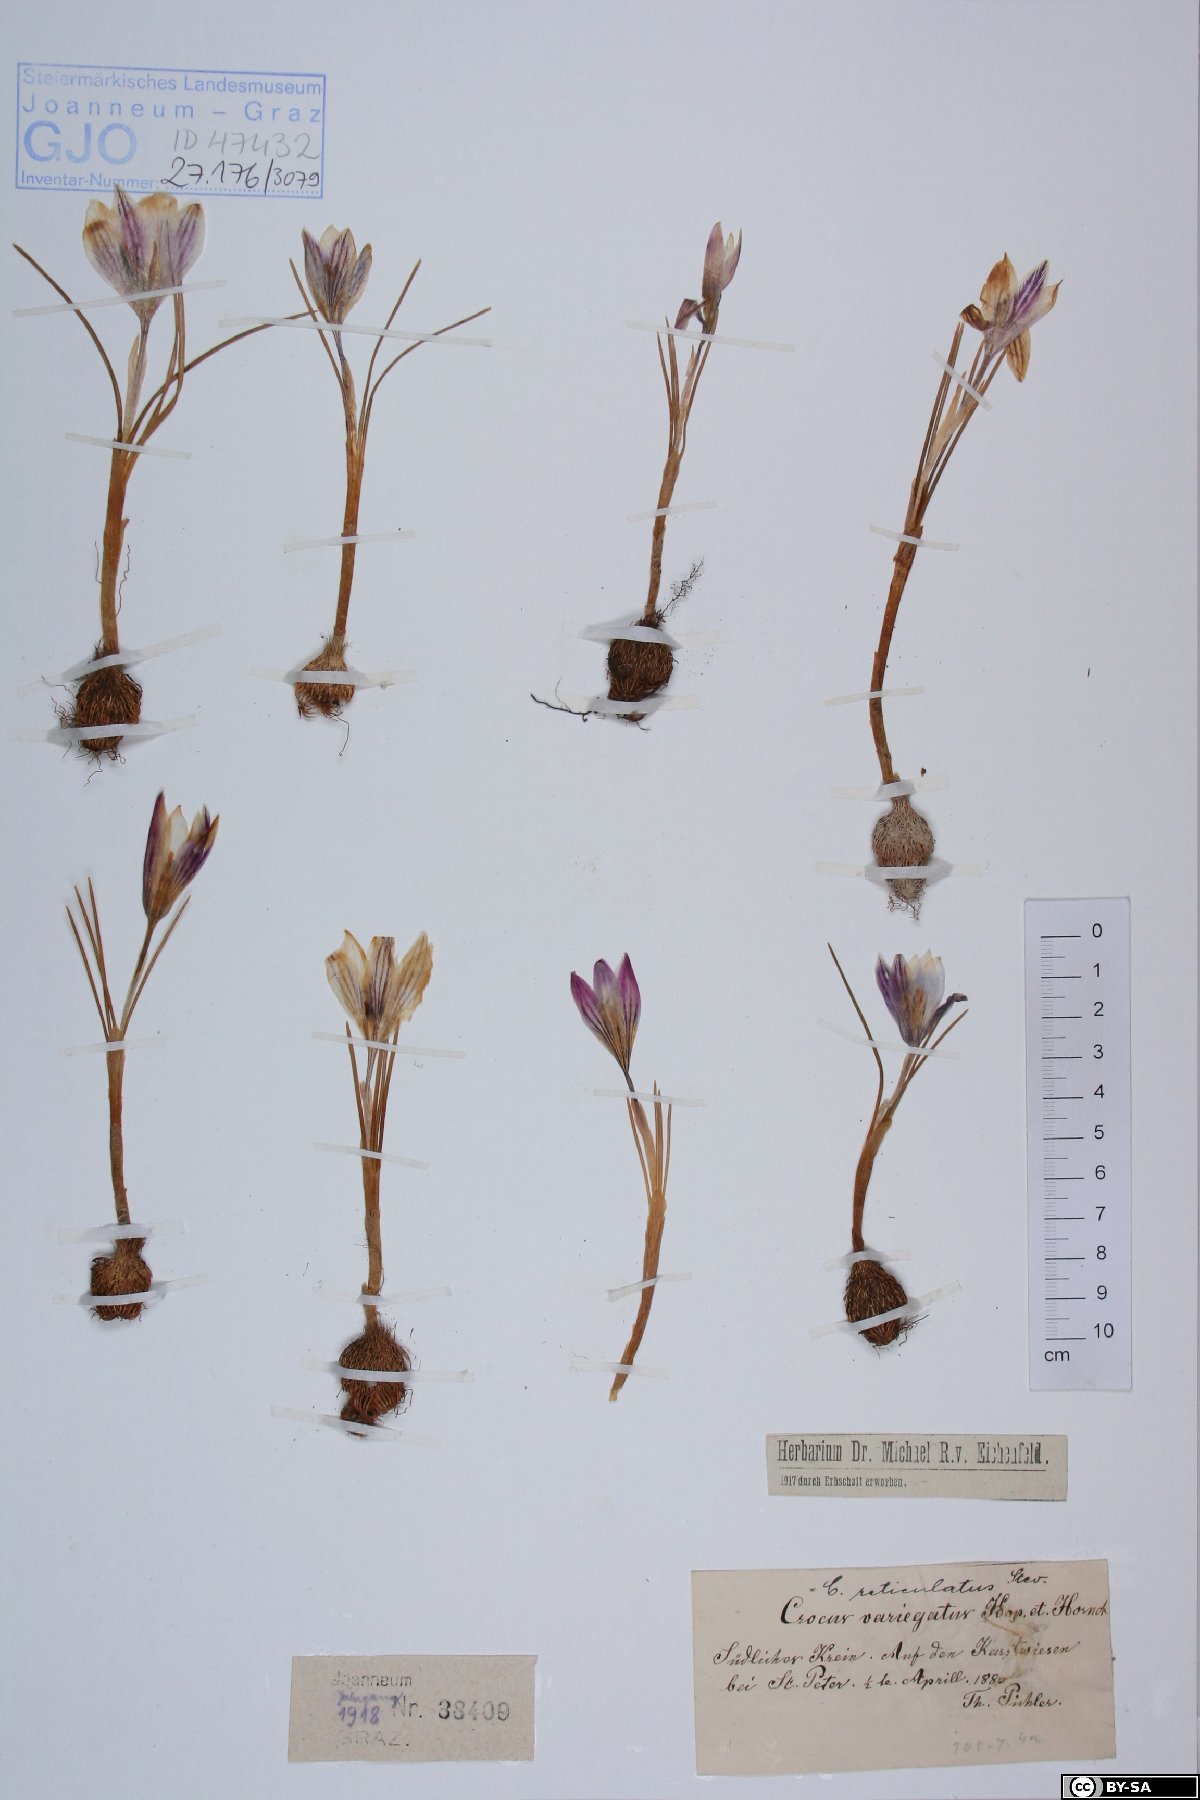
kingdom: Plantae
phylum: Tracheophyta
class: Liliopsida
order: Asparagales
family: Iridaceae
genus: Crocus
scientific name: Crocus variegatus
